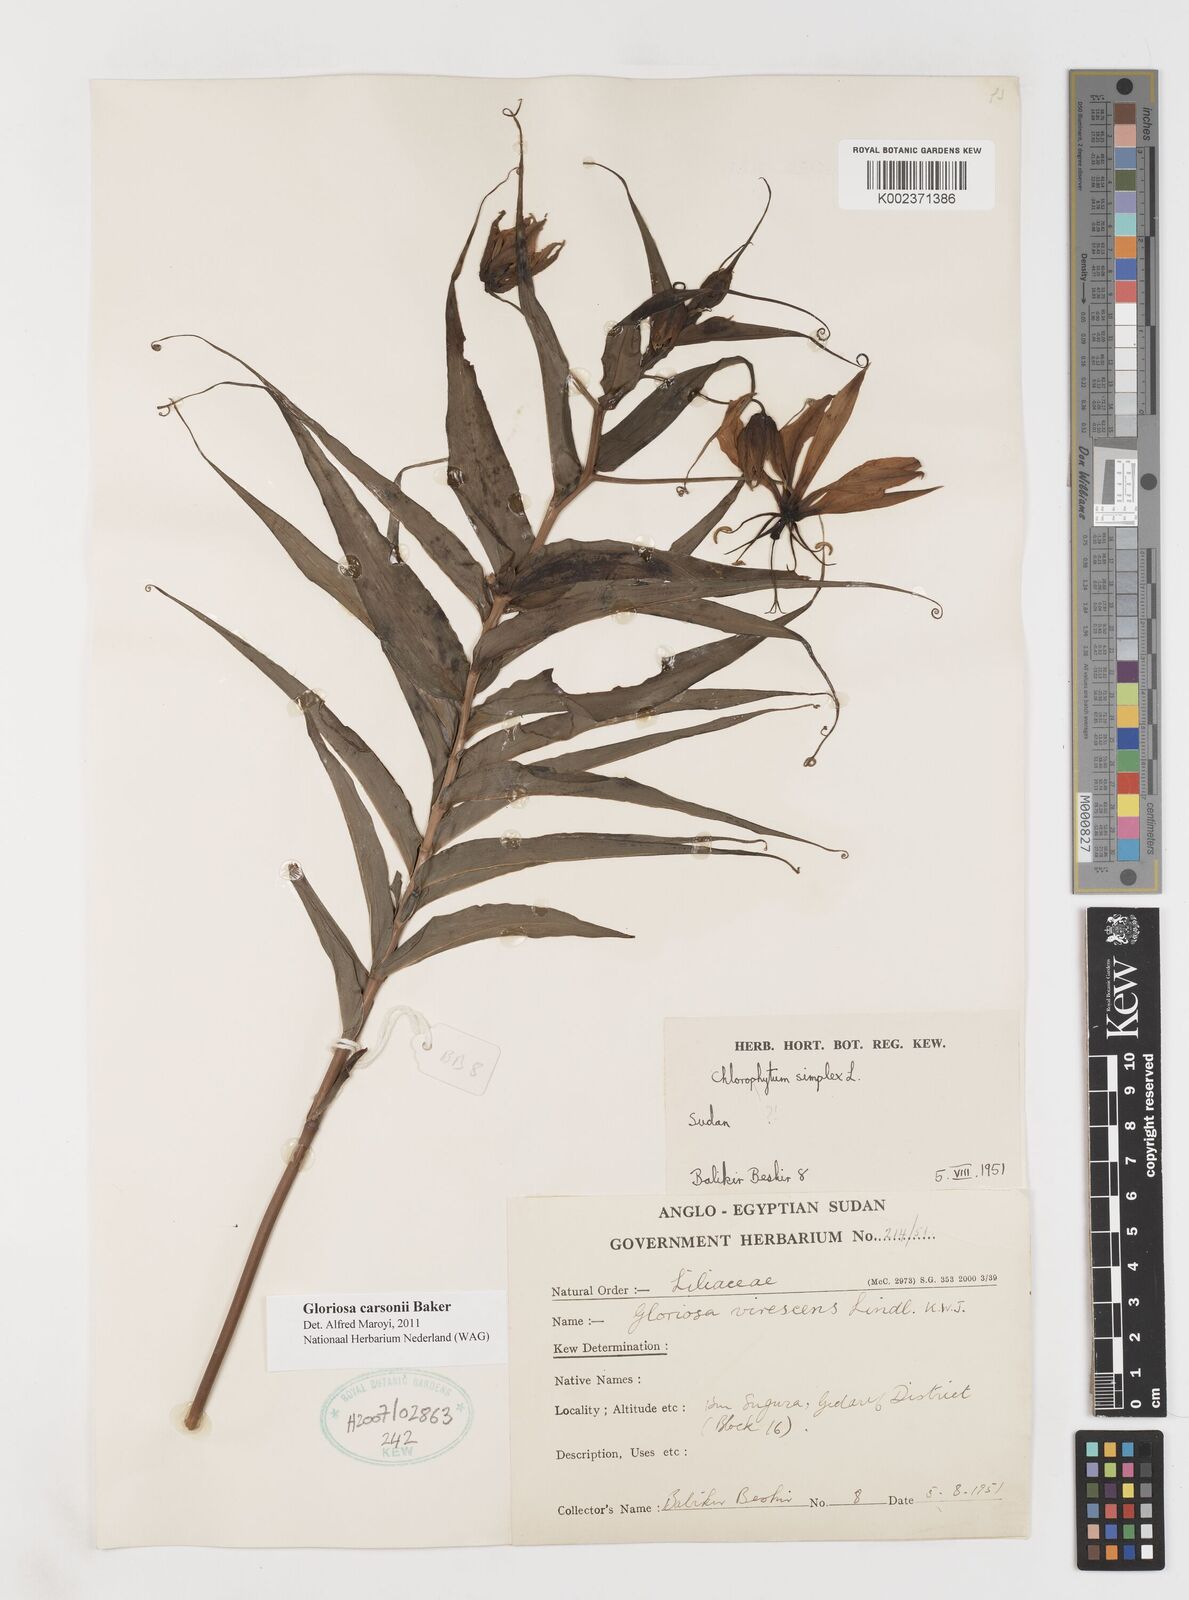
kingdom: Plantae
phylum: Tracheophyta
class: Liliopsida
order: Liliales
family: Colchicaceae
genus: Gloriosa
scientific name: Gloriosa carsonii
